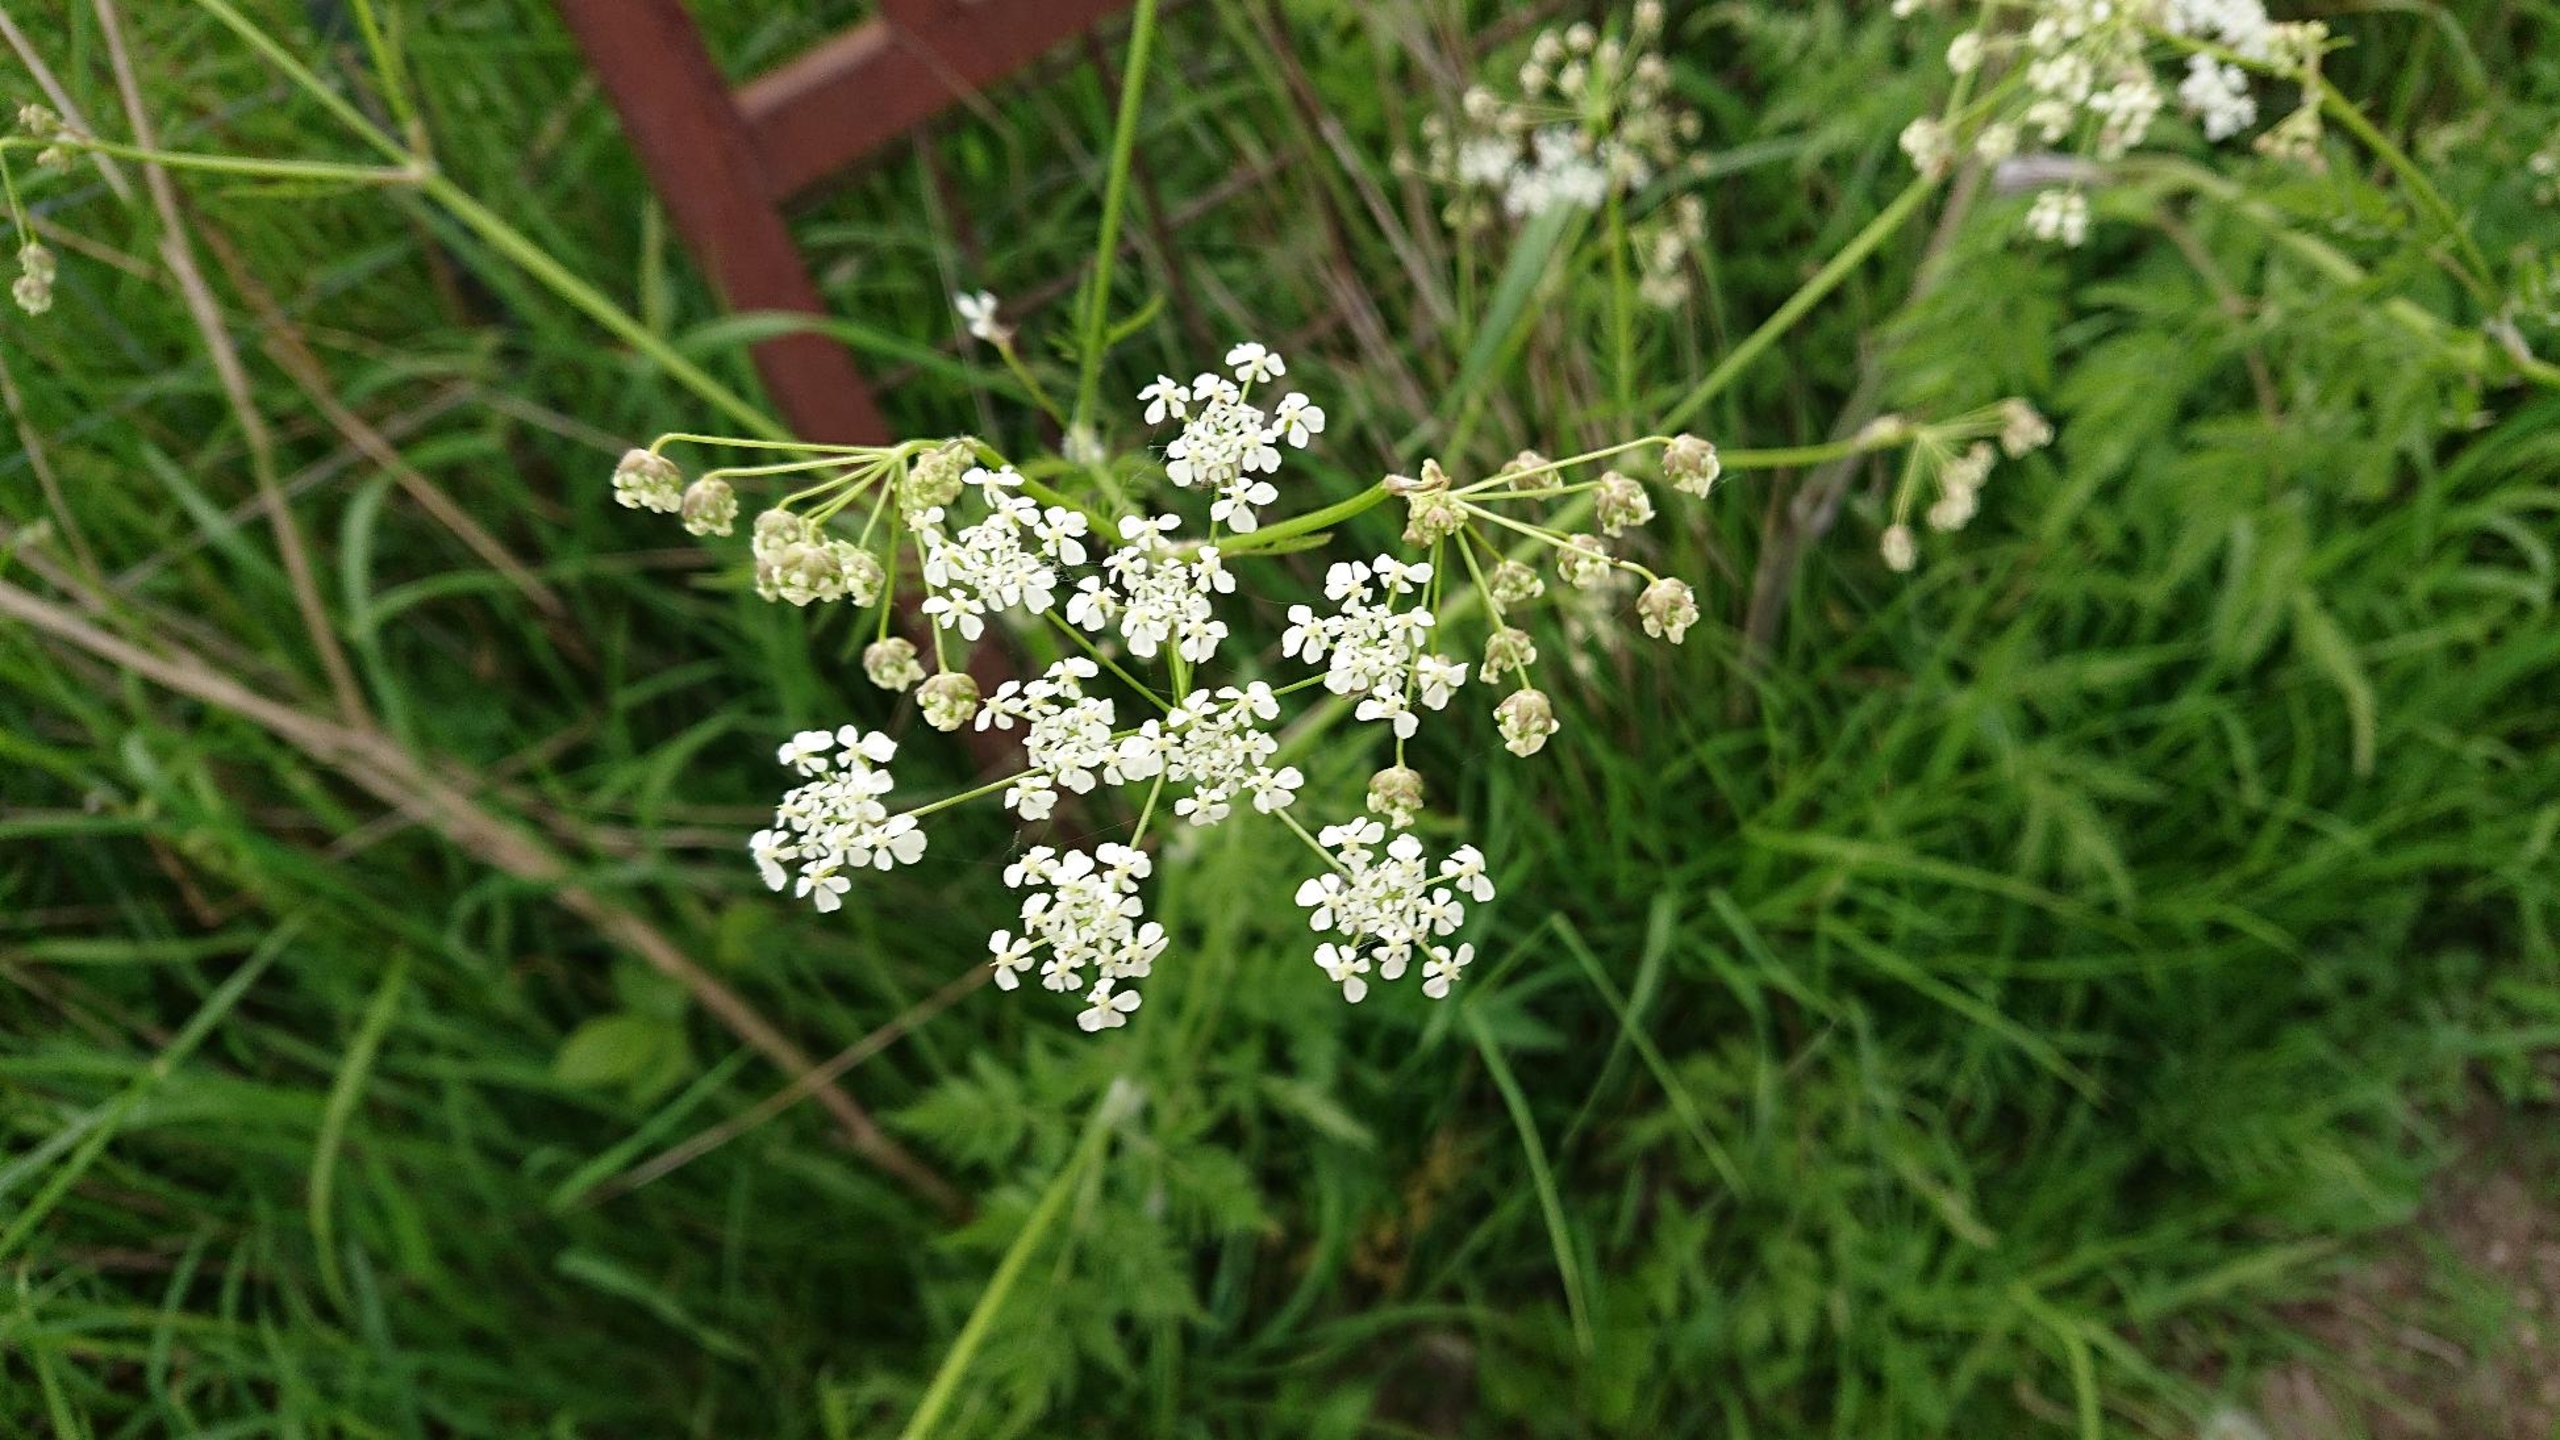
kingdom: Plantae
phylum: Tracheophyta
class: Magnoliopsida
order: Apiales
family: Apiaceae
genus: Anthriscus
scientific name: Anthriscus sylvestris
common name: Vild kørvel
